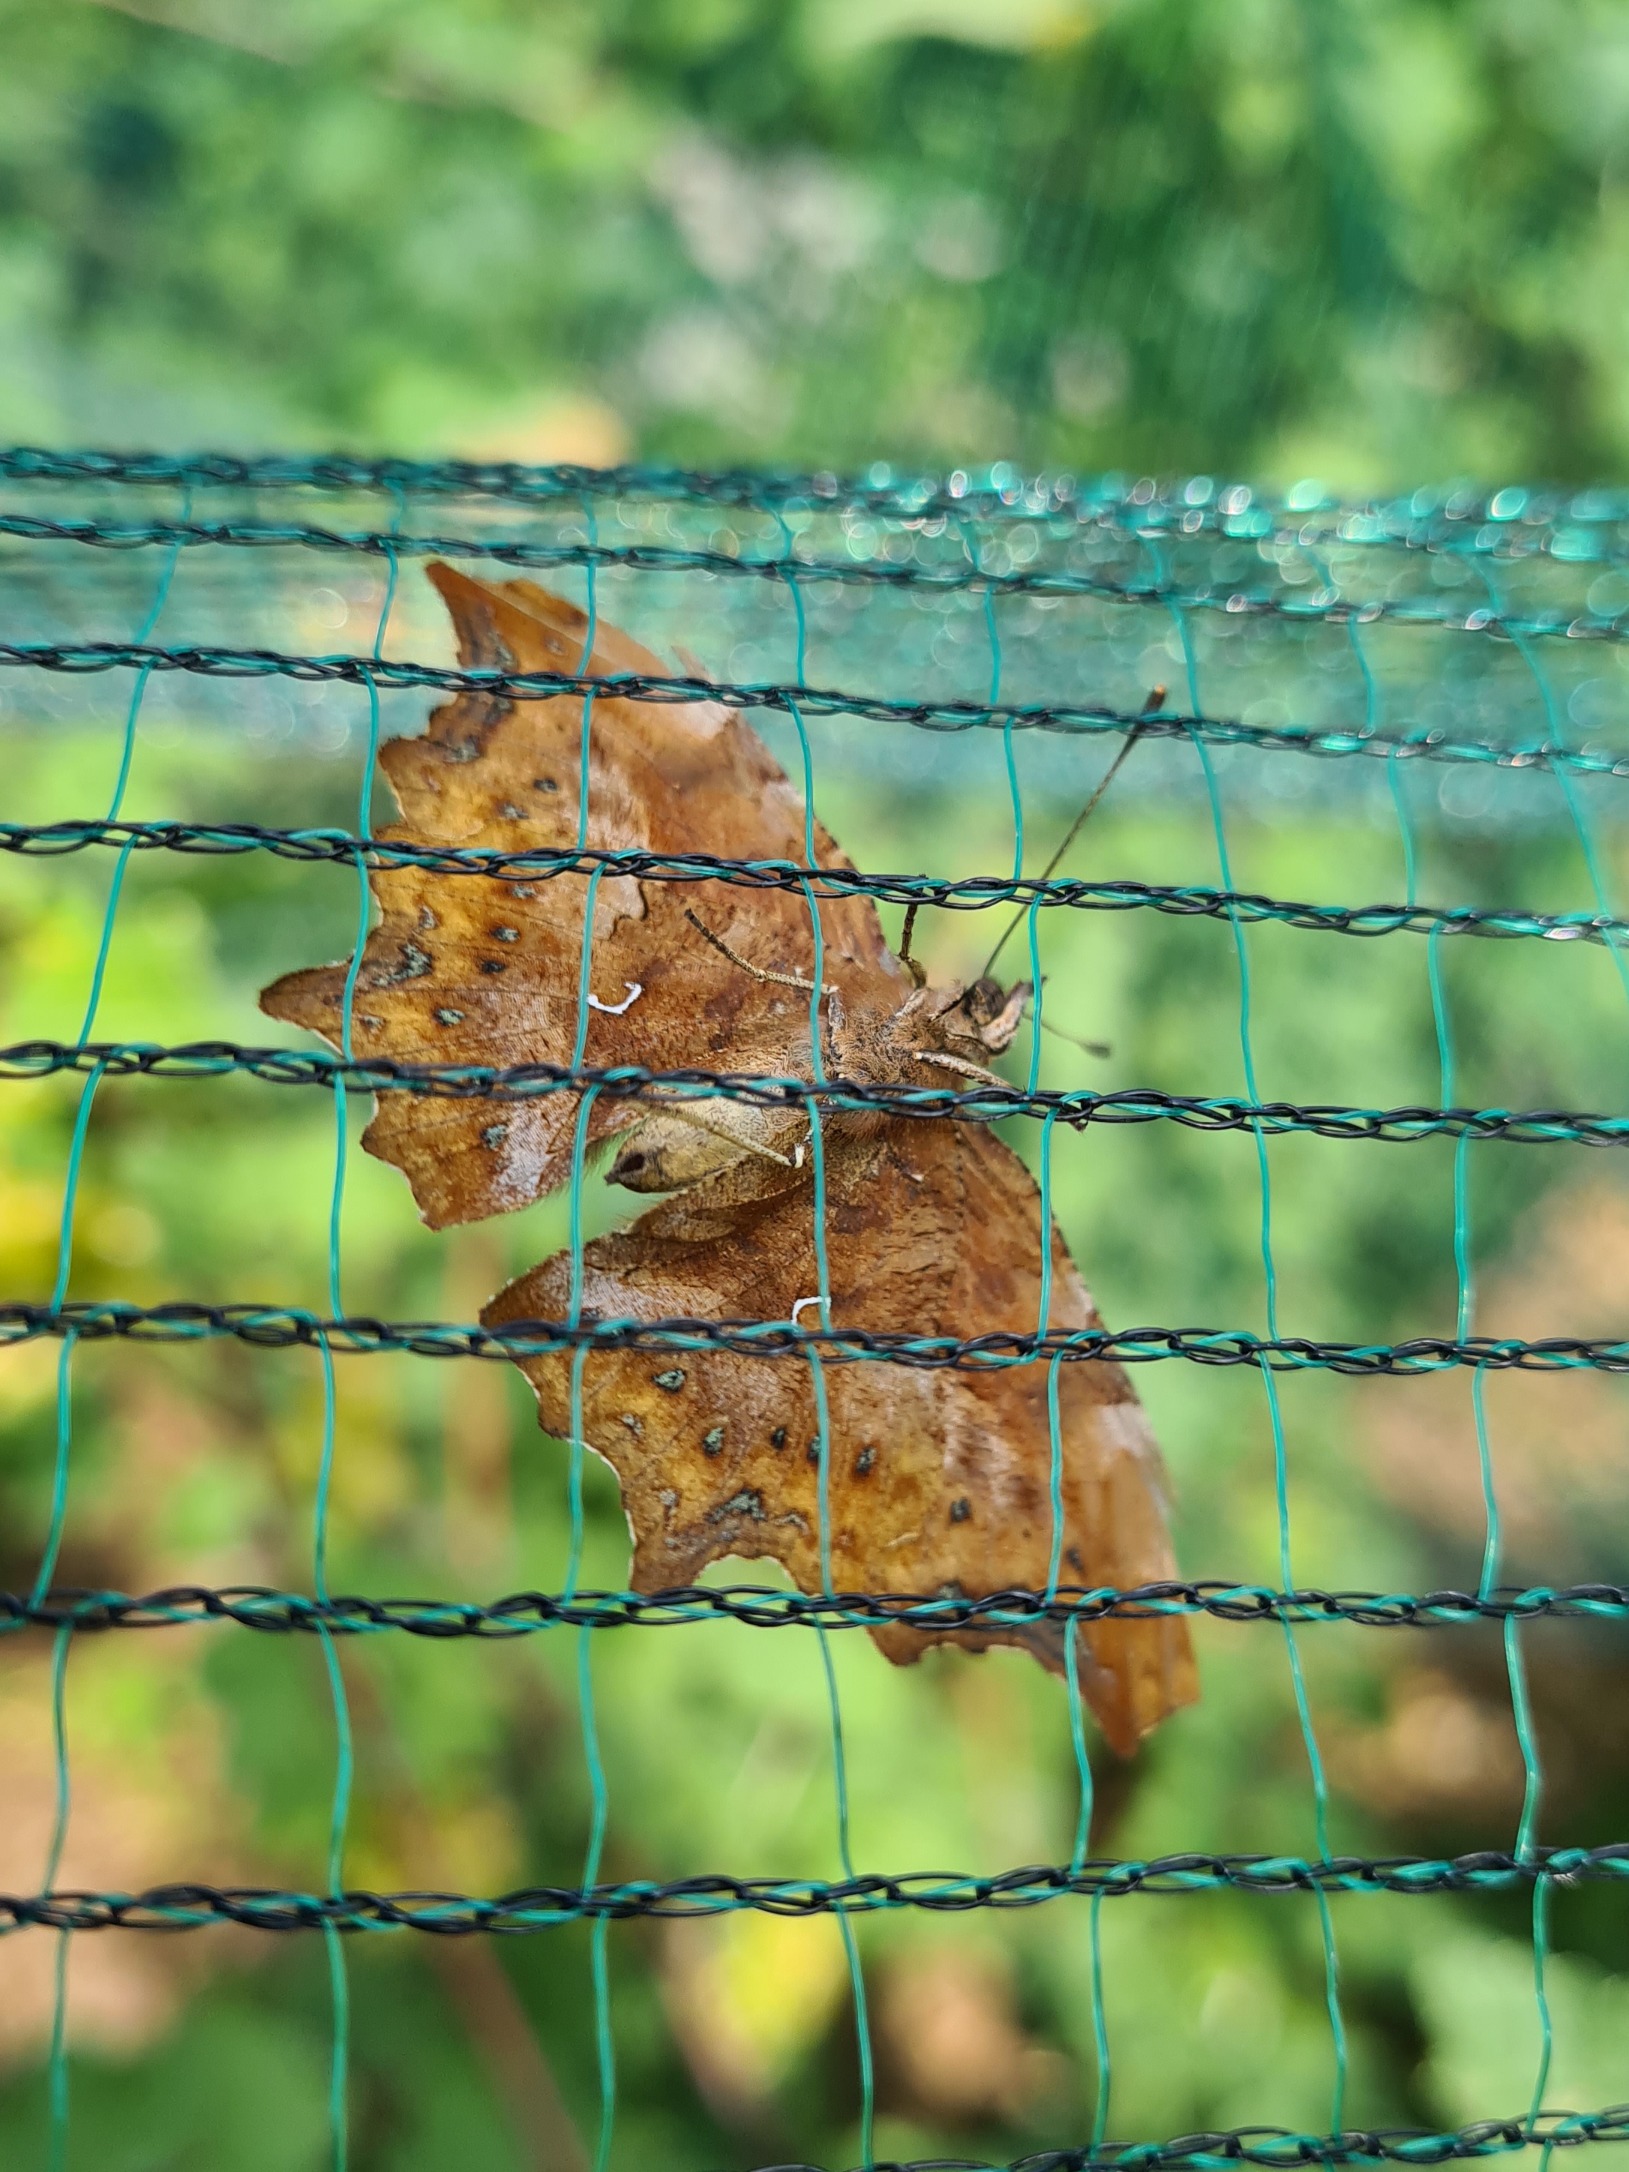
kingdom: Animalia
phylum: Arthropoda
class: Insecta
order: Lepidoptera
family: Nymphalidae
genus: Polygonia
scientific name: Polygonia c-album
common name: Det hvide C
